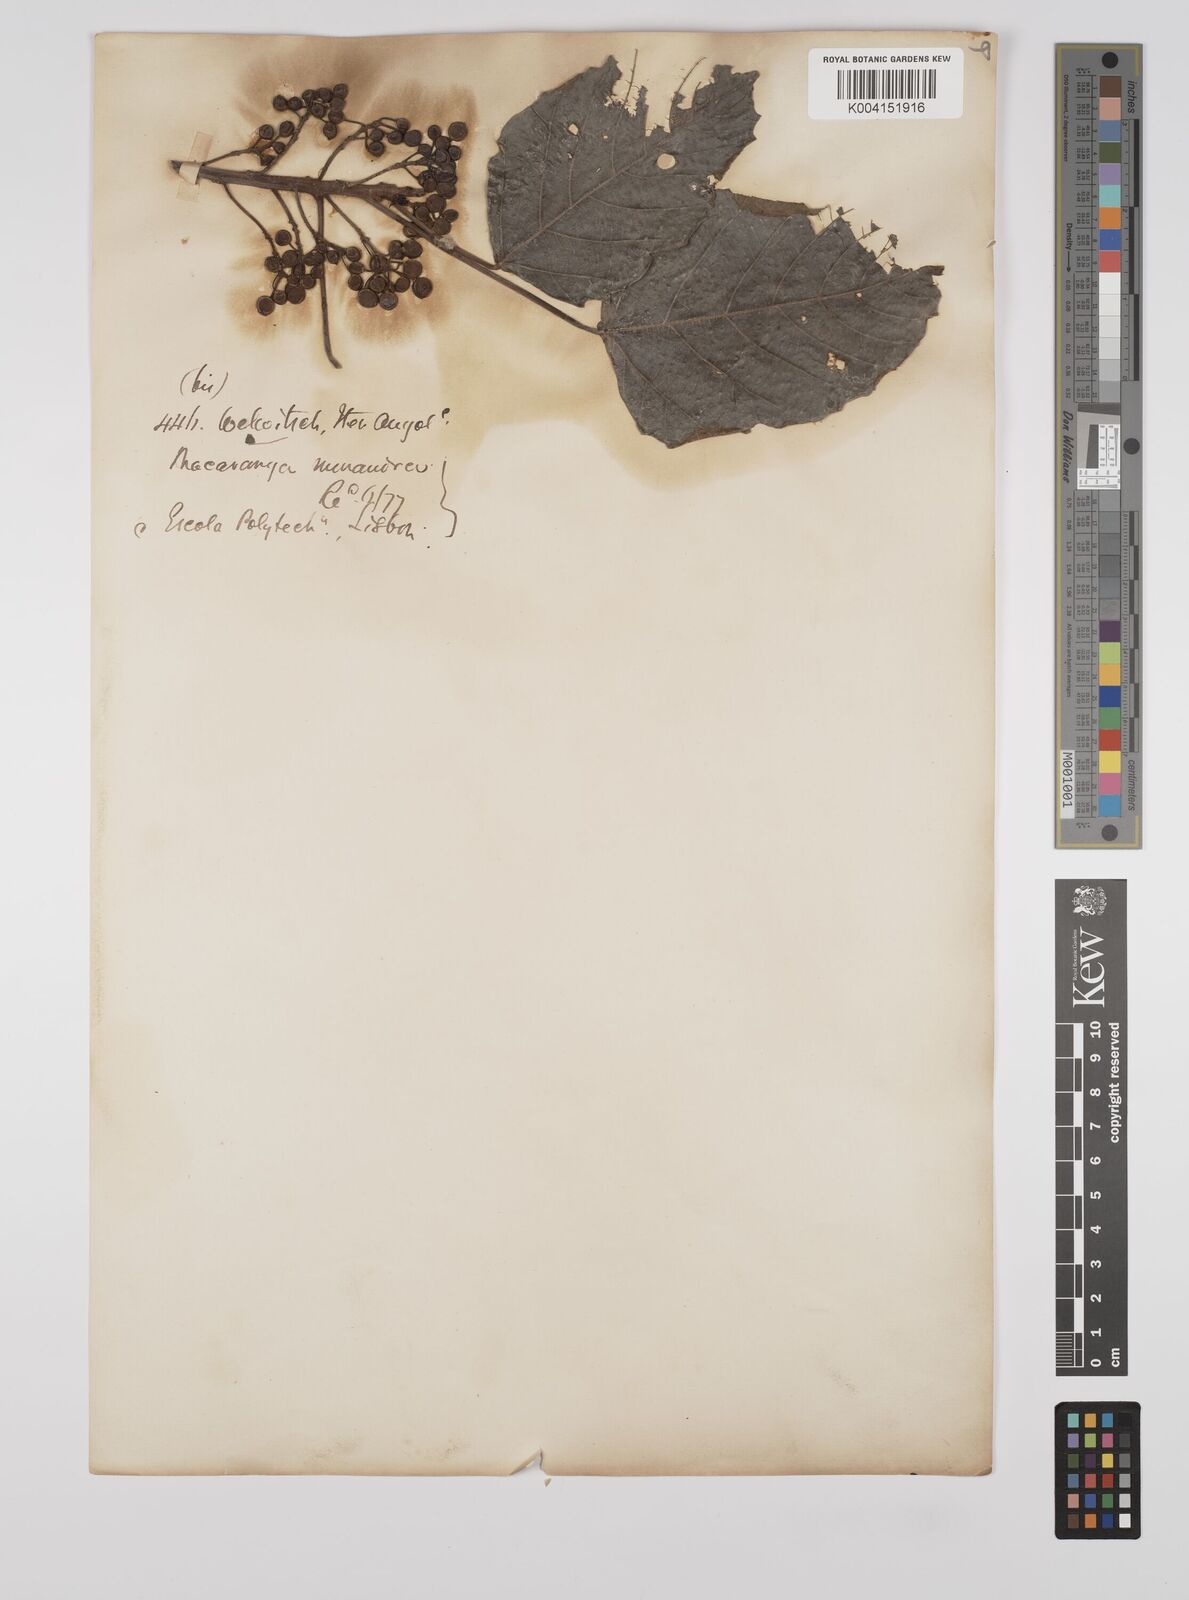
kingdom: Plantae
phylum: Tracheophyta
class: Magnoliopsida
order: Malpighiales
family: Euphorbiaceae
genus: Macaranga
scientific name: Macaranga monandra
